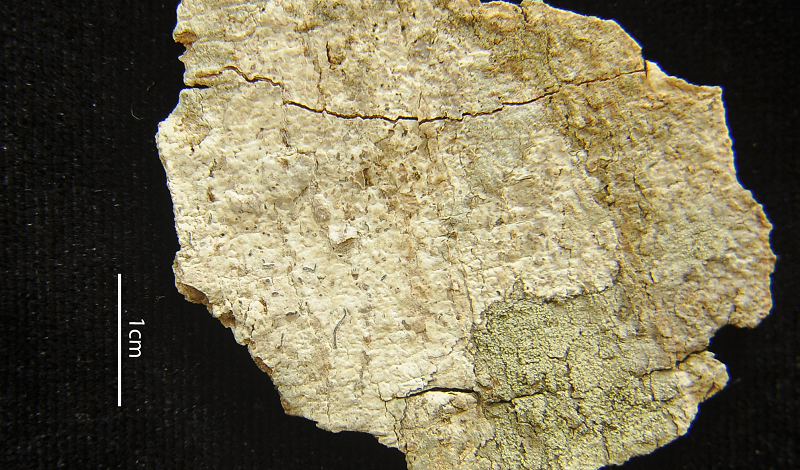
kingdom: Fungi
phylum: Ascomycota
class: Lecanoromycetes
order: Ostropales
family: Graphidaceae
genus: Allographa
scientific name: Allographa upretii
